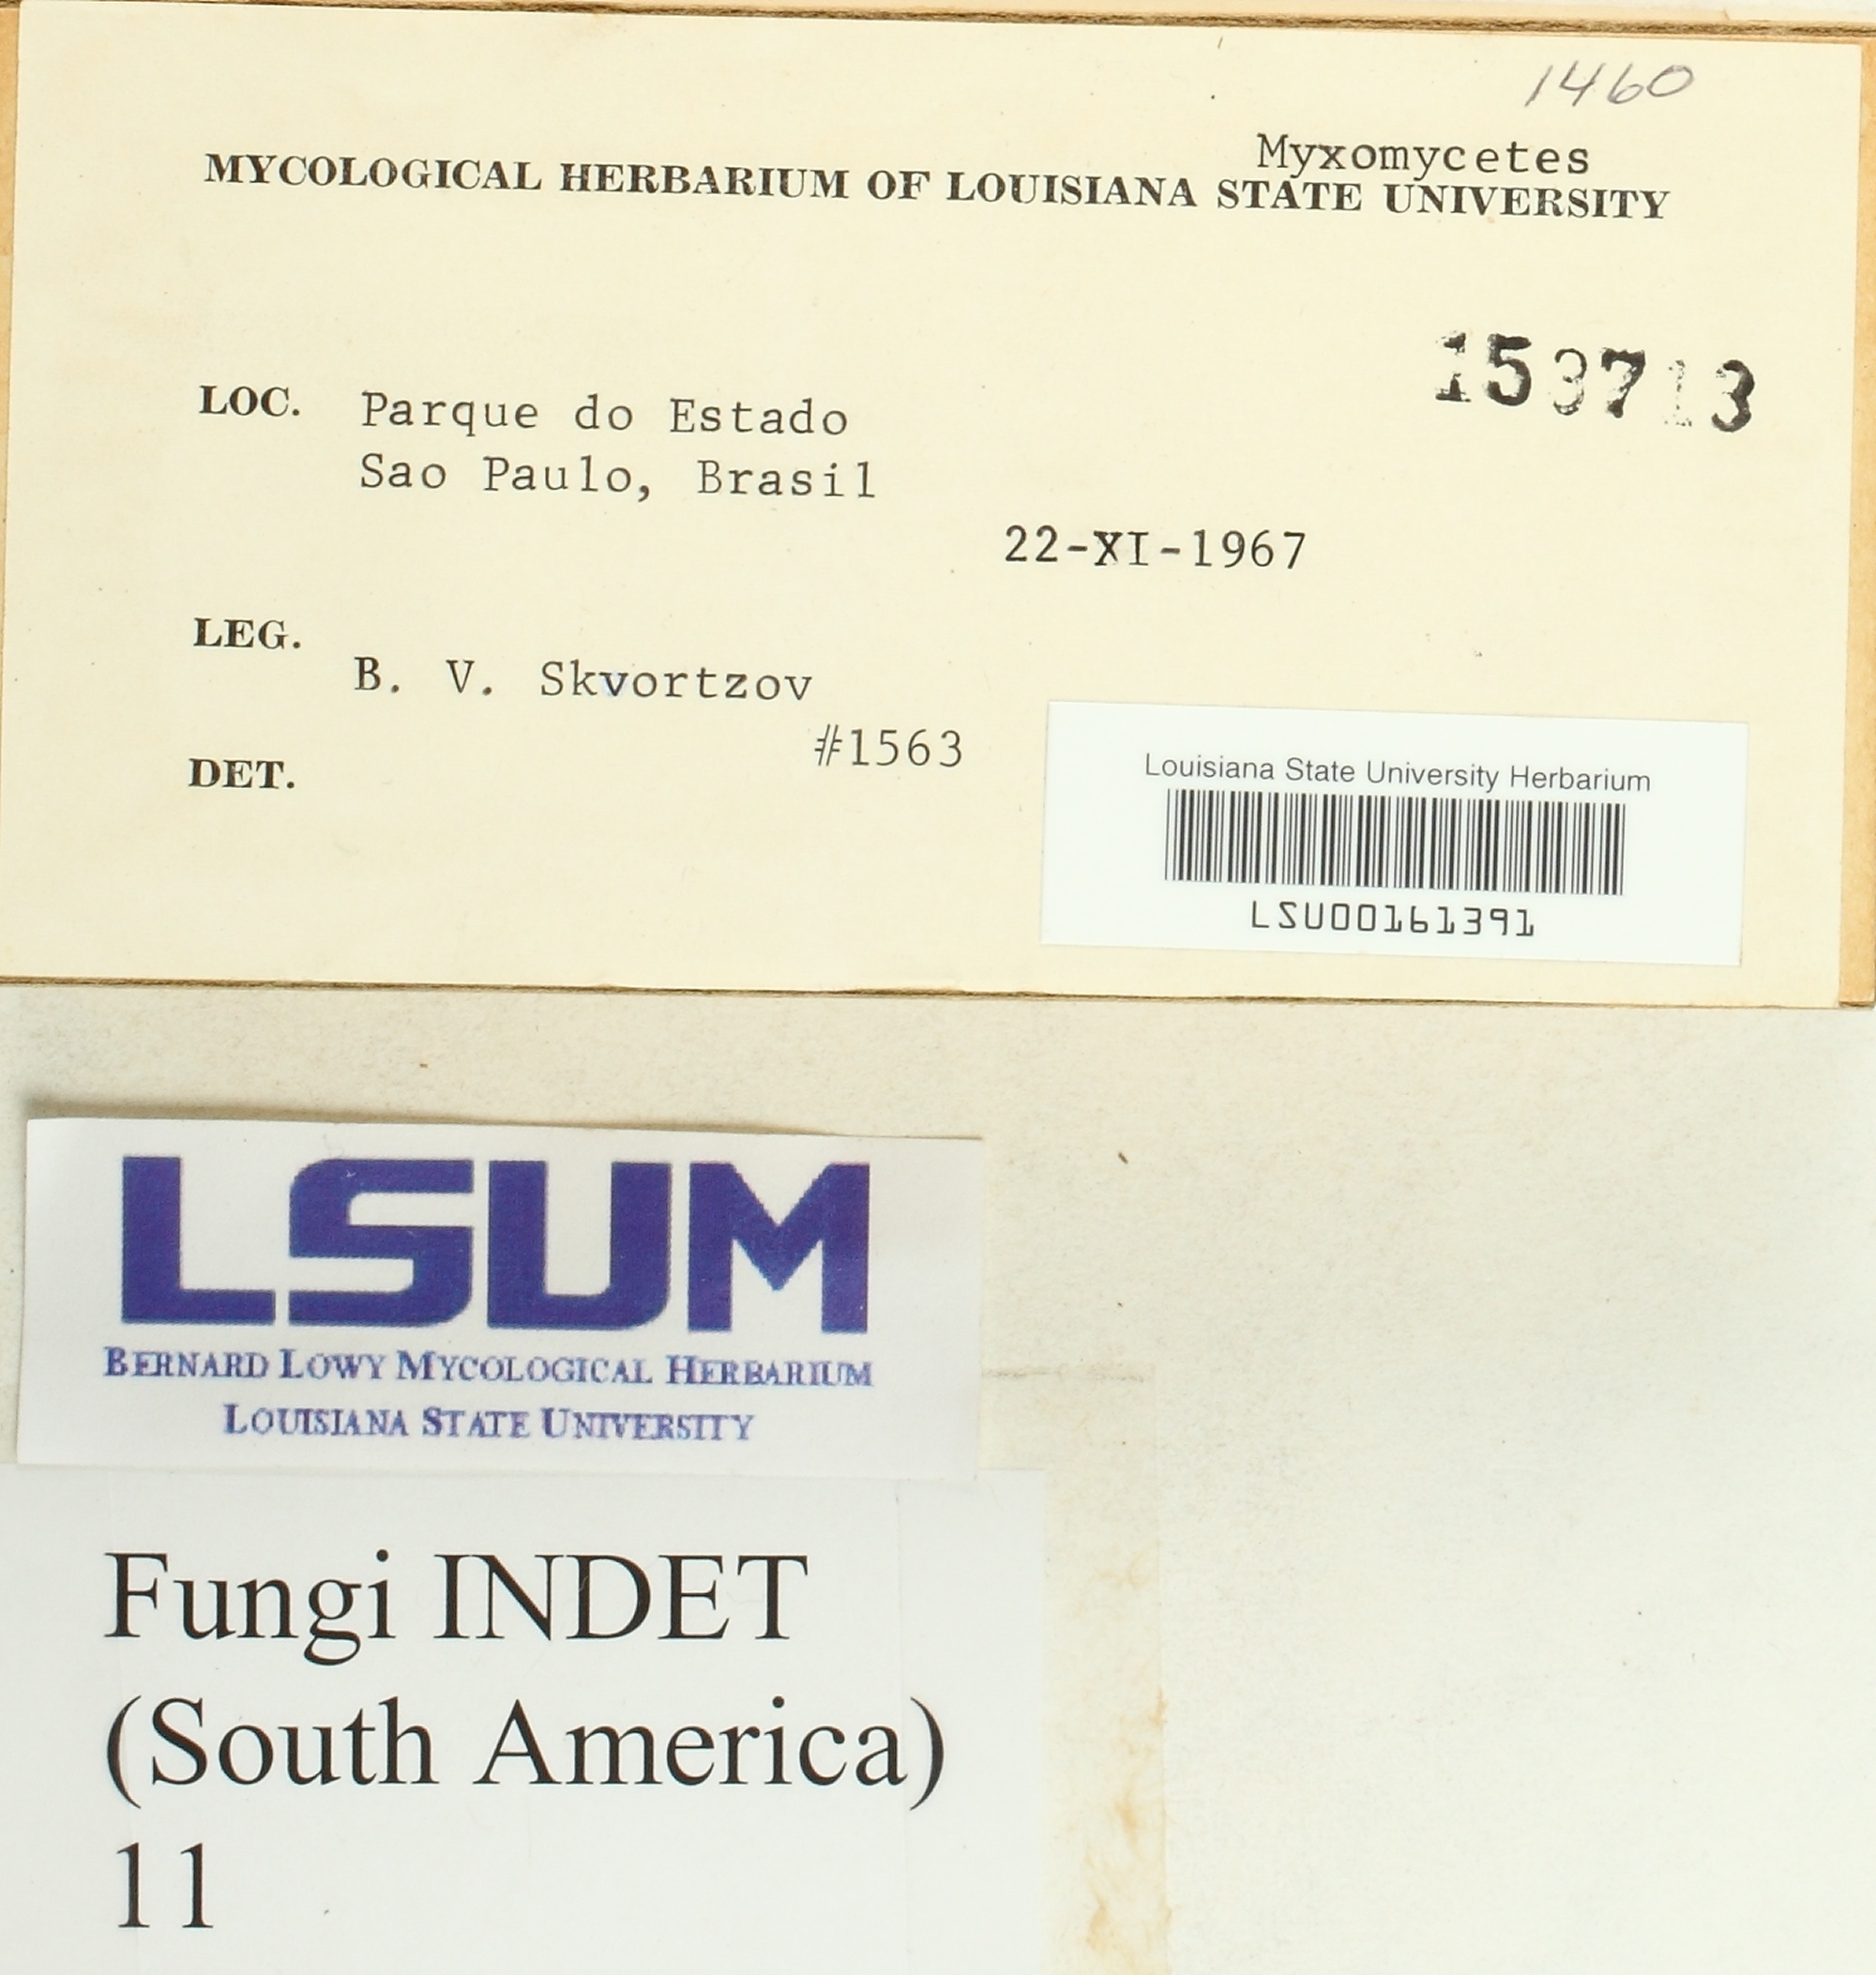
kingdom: Fungi
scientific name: Fungi
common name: Fungi
